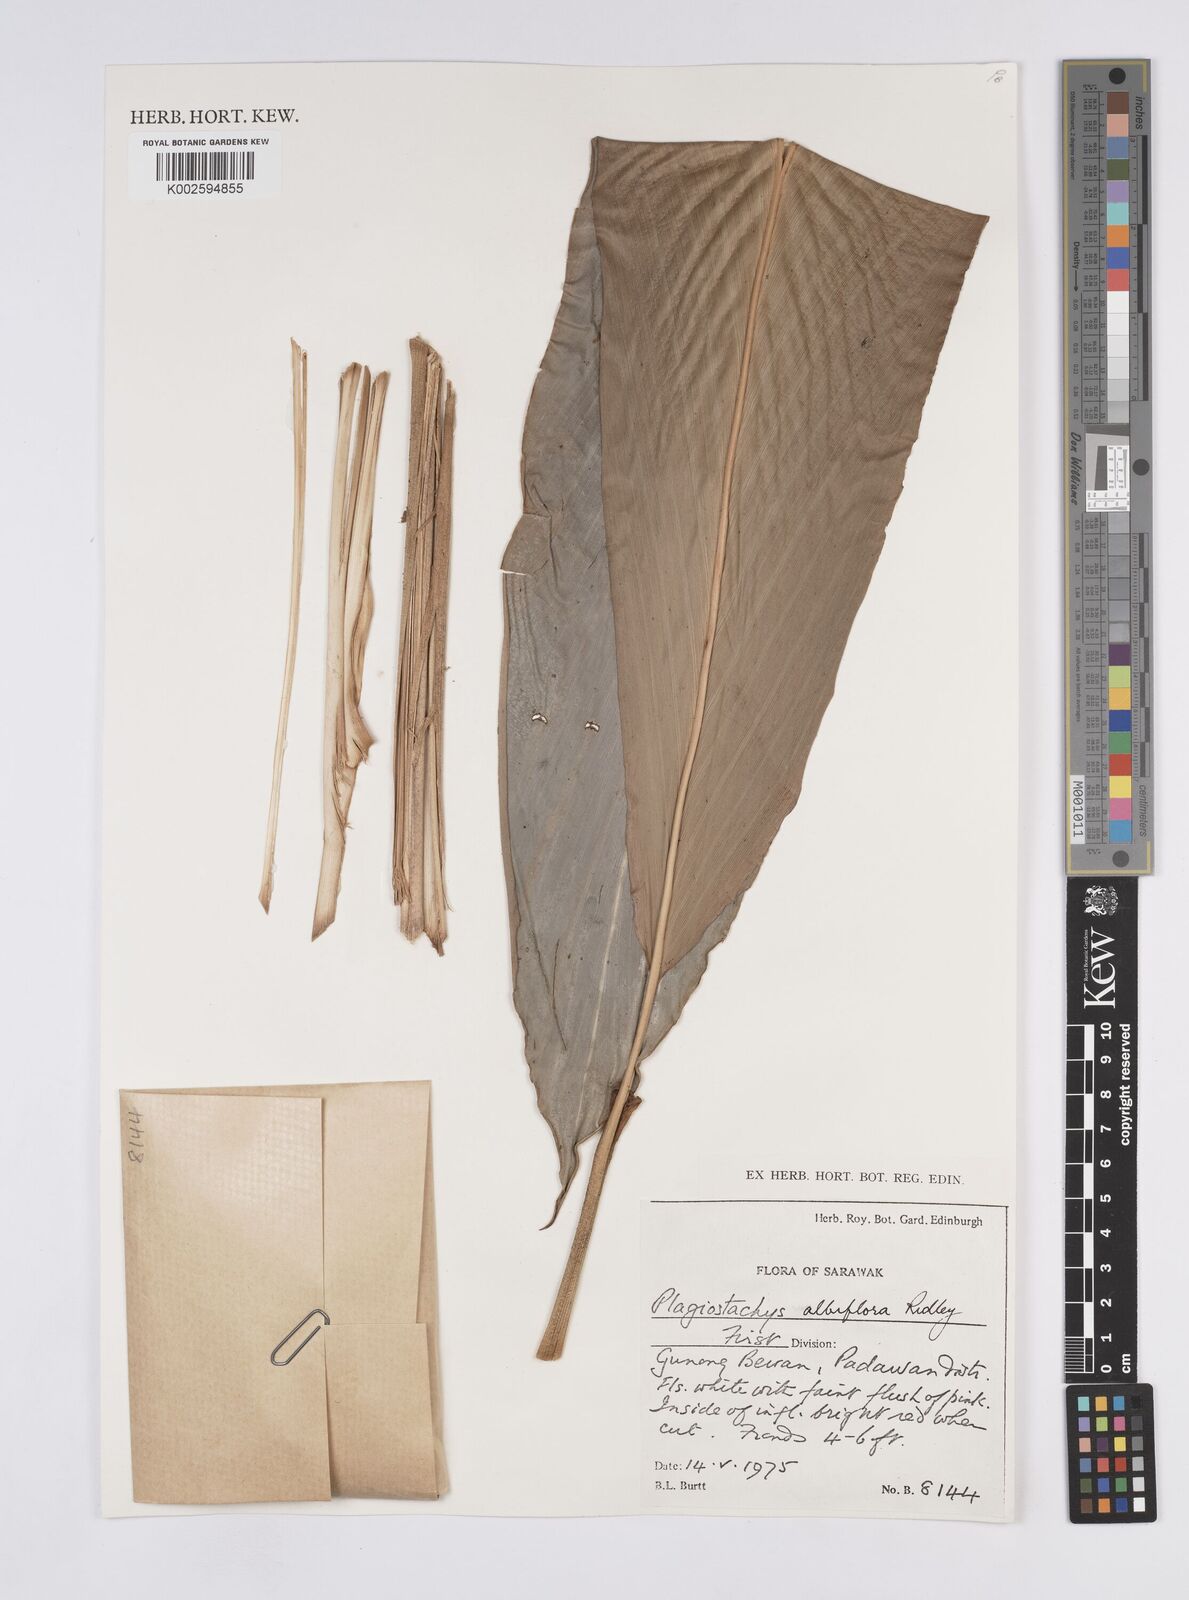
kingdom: Plantae
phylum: Tracheophyta
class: Liliopsida
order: Zingiberales
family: Zingiberaceae
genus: Plagiostachys
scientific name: Plagiostachys albiflora
